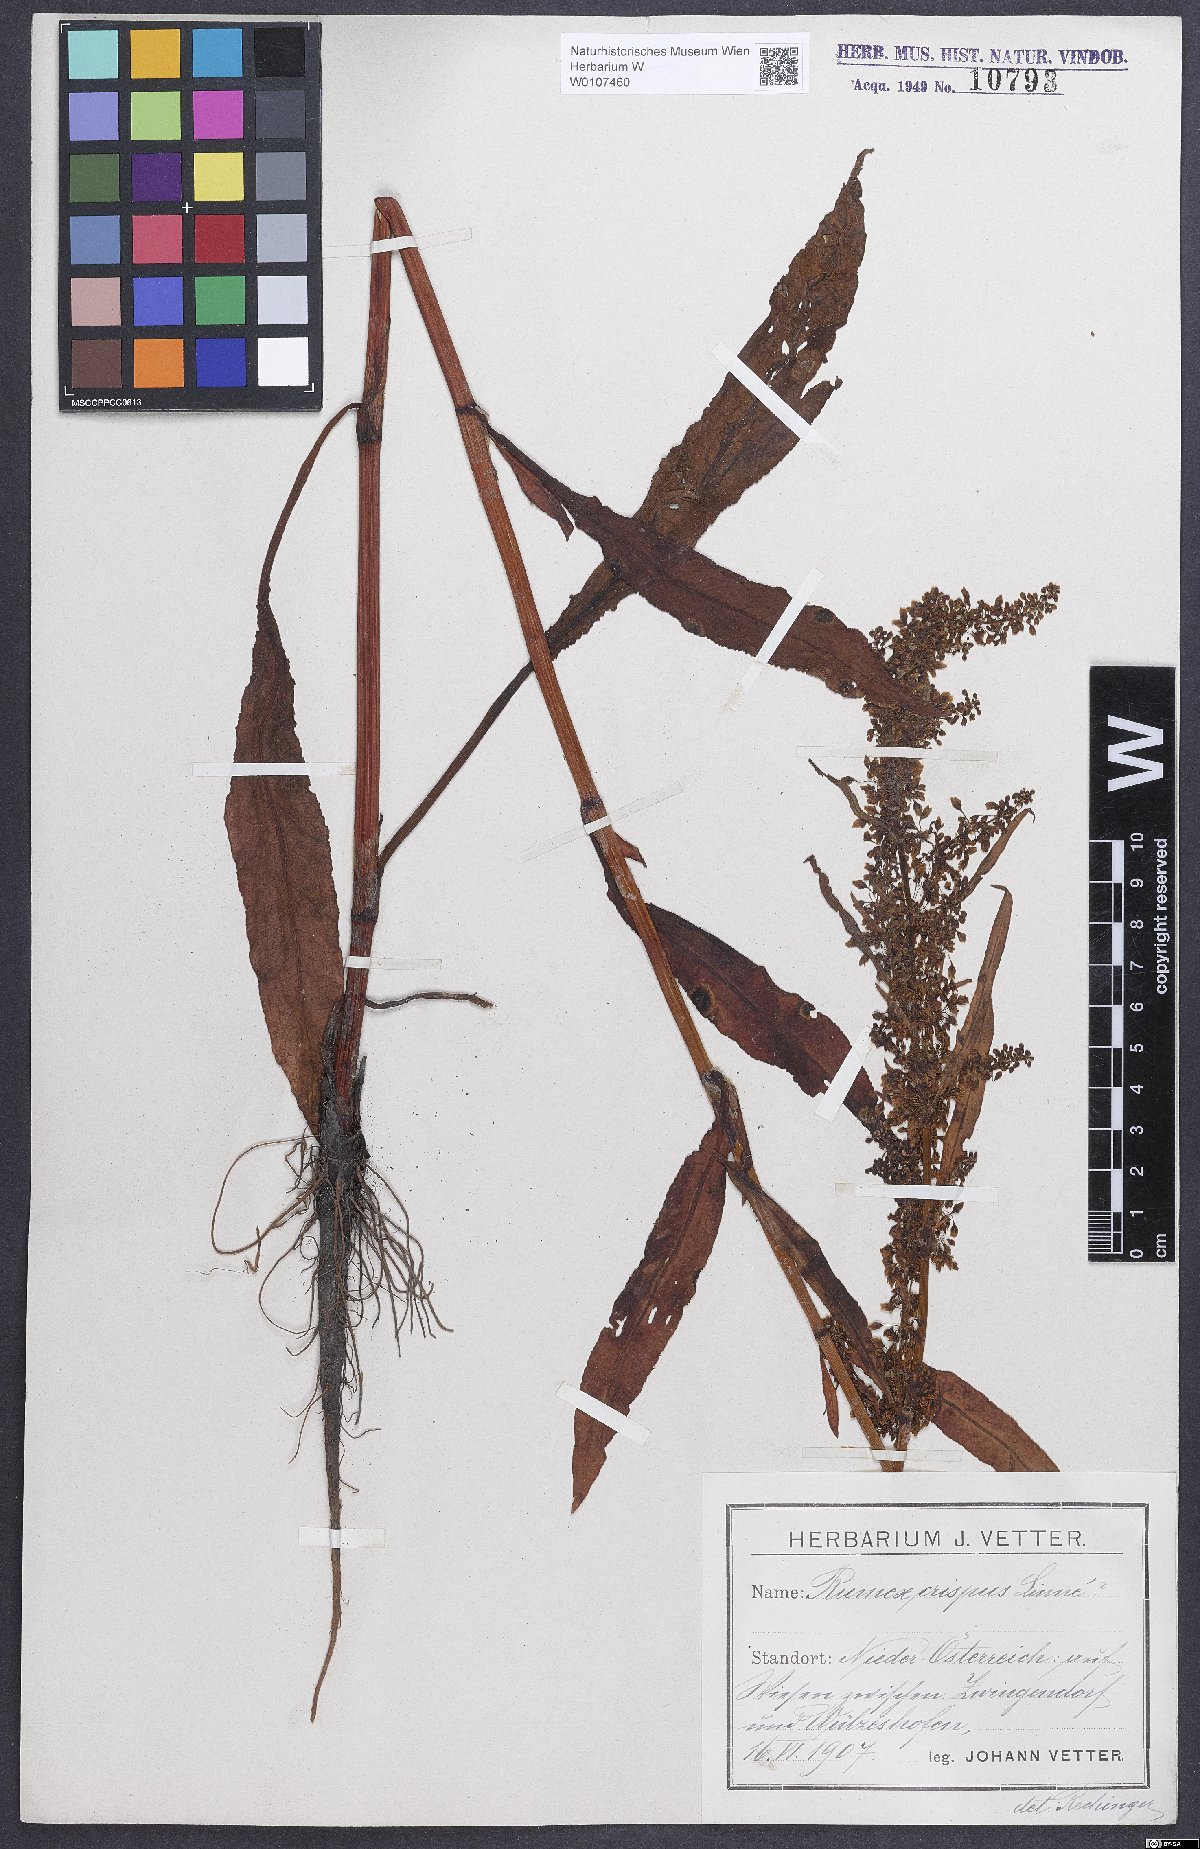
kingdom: Plantae
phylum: Tracheophyta
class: Magnoliopsida
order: Caryophyllales
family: Polygonaceae
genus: Rumex
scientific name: Rumex crispus
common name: Curled dock
